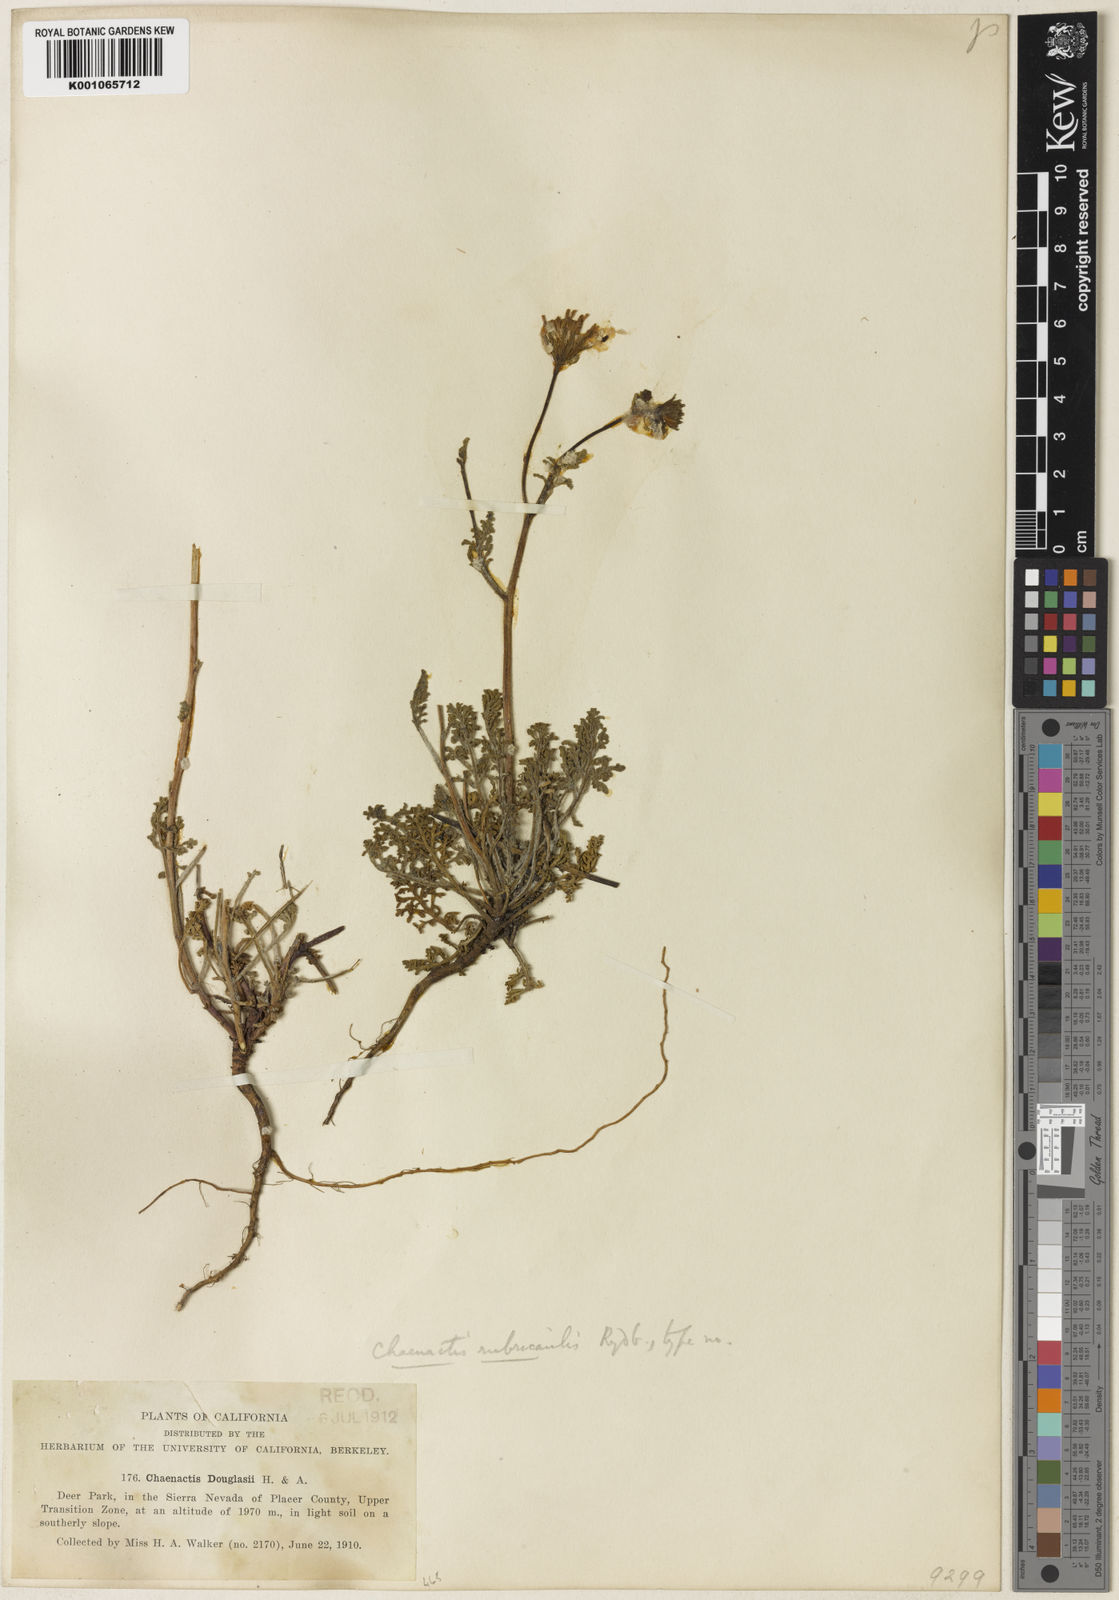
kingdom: Plantae
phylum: Tracheophyta
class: Magnoliopsida
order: Asterales
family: Asteraceae
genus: Chaenactis
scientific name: Chaenactis douglasii
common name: Hoary pincushion
